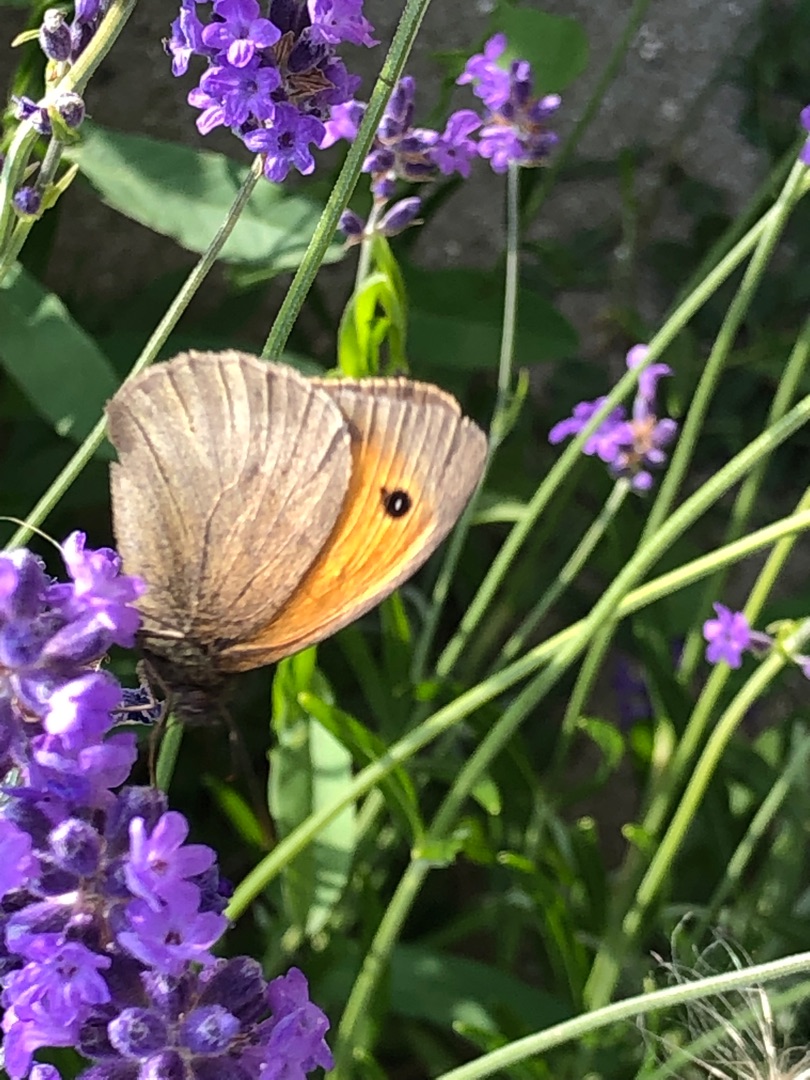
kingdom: Animalia
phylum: Arthropoda
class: Insecta
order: Lepidoptera
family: Nymphalidae
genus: Maniola
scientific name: Maniola jurtina
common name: Græsrandøje
